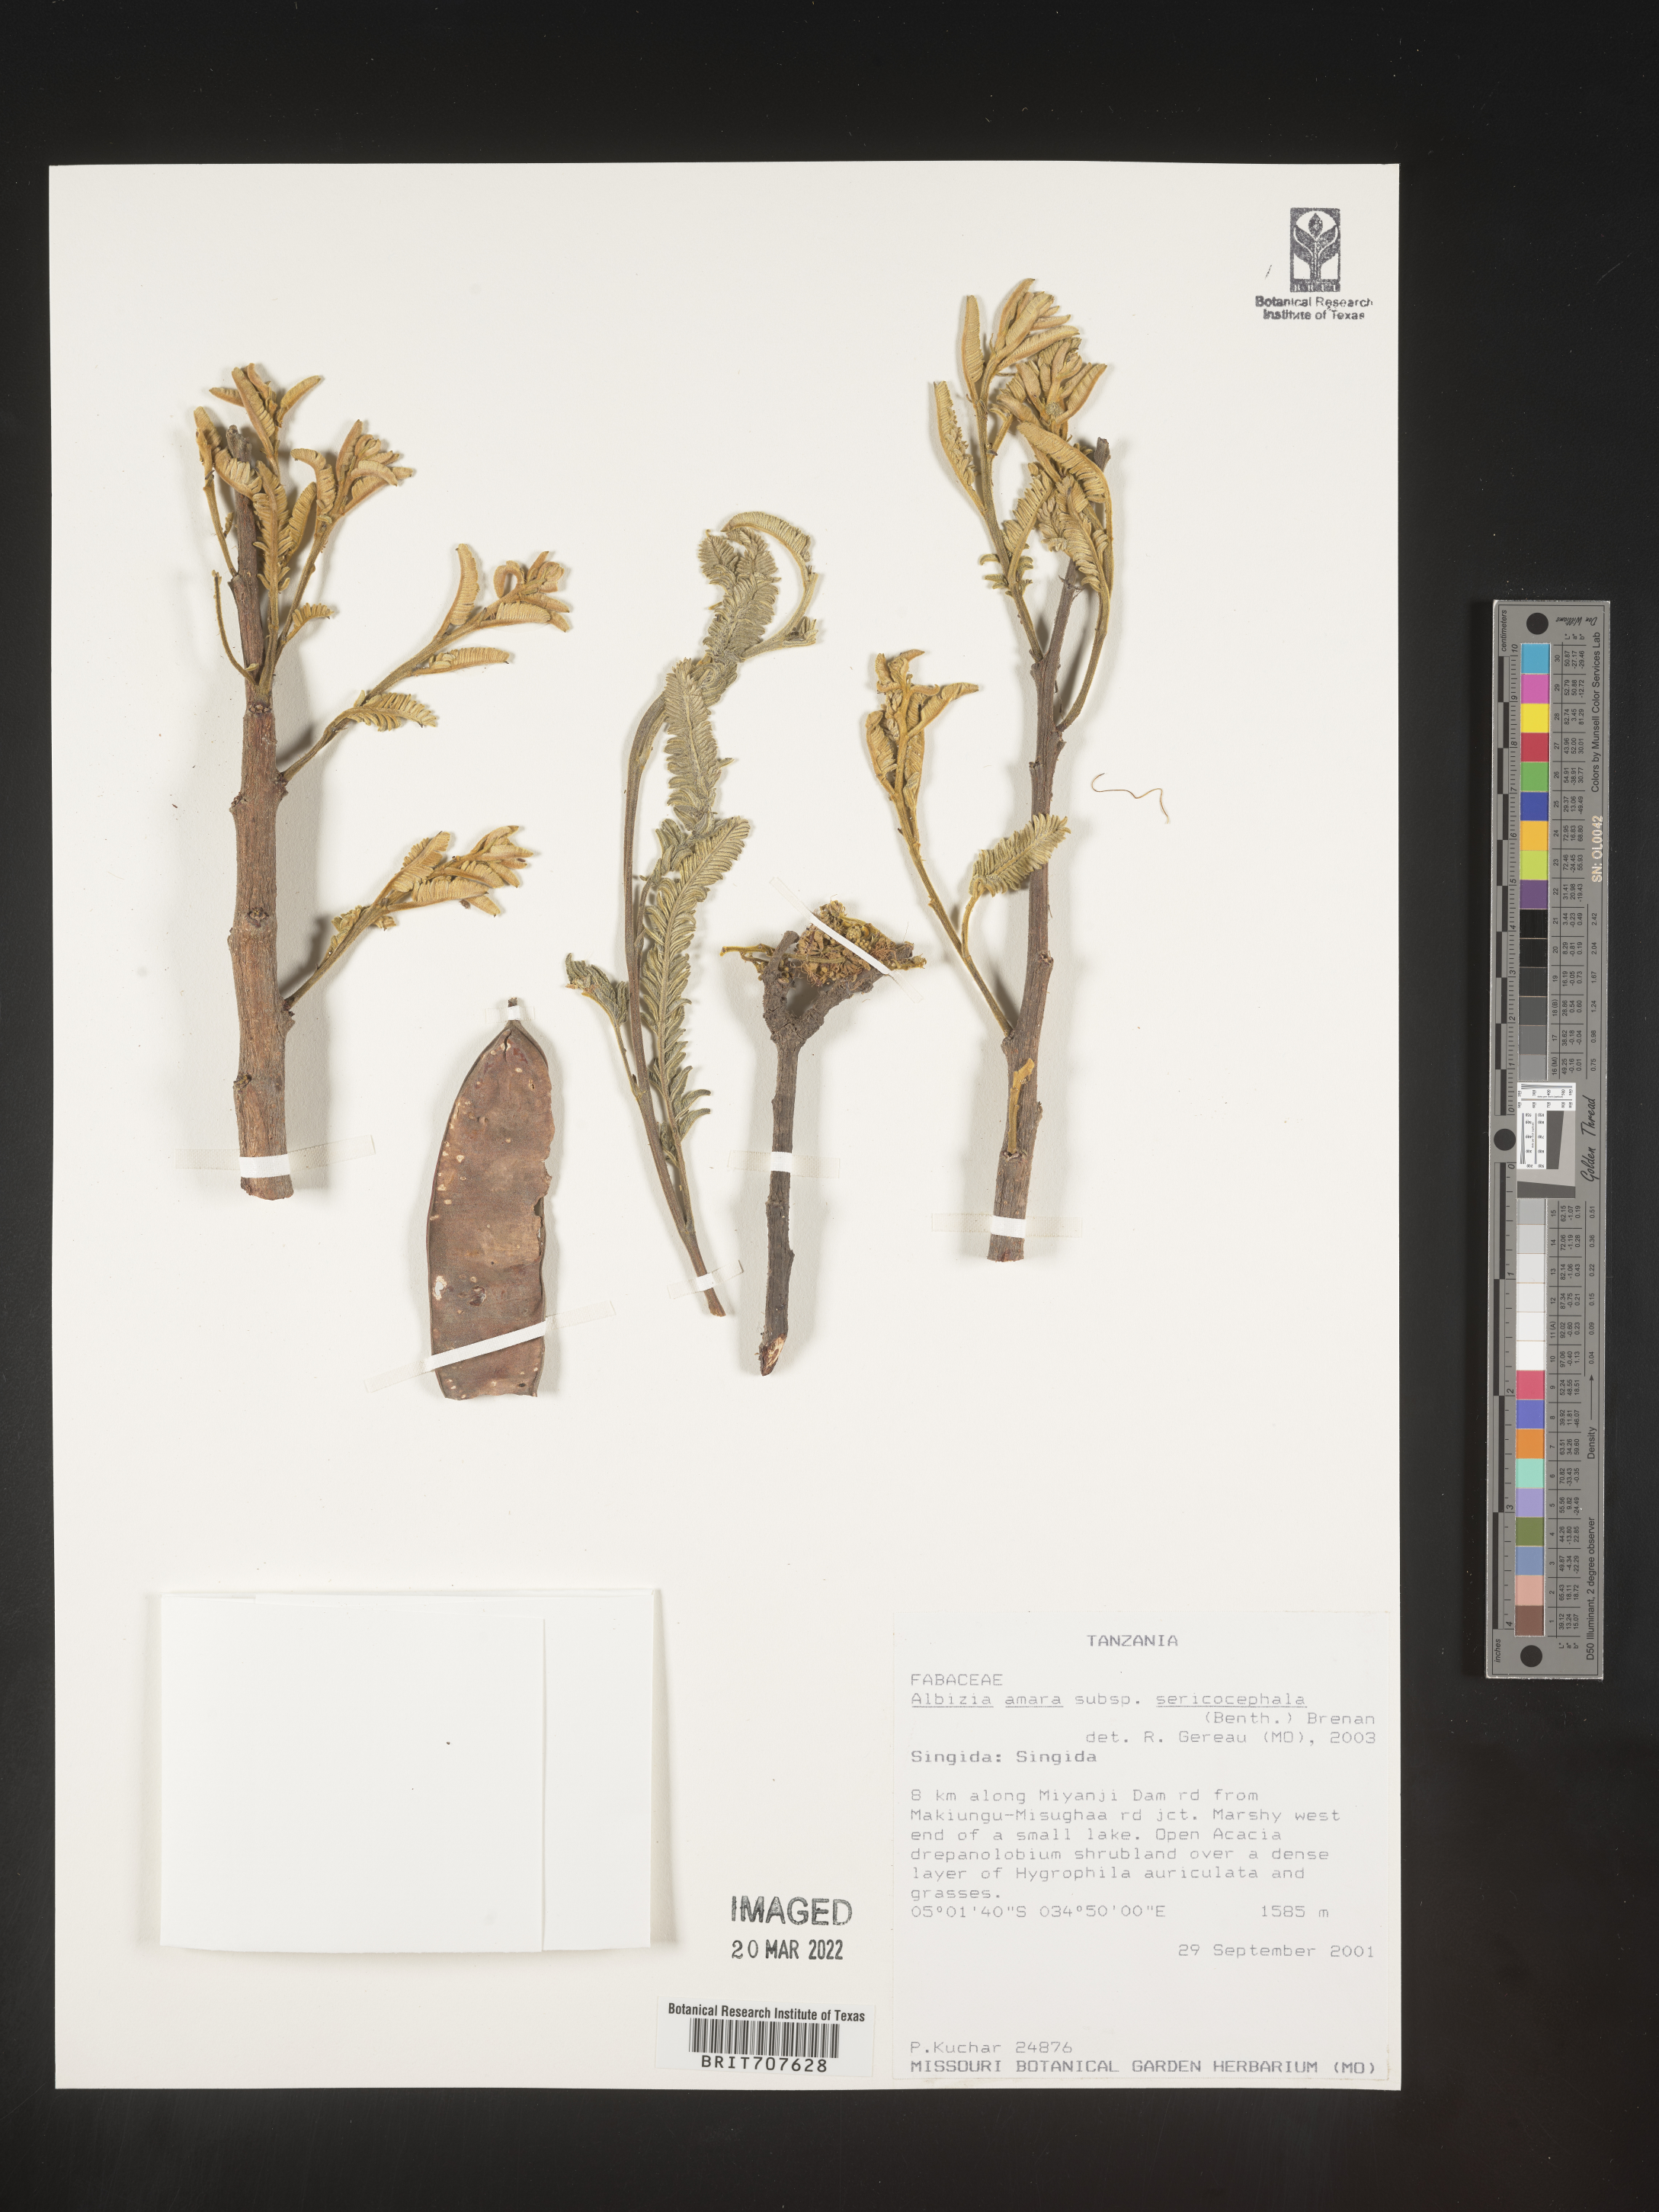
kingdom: Plantae
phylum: Tracheophyta
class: Magnoliopsida
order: Fabales
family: Fabaceae
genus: Albizia
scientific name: Albizia
